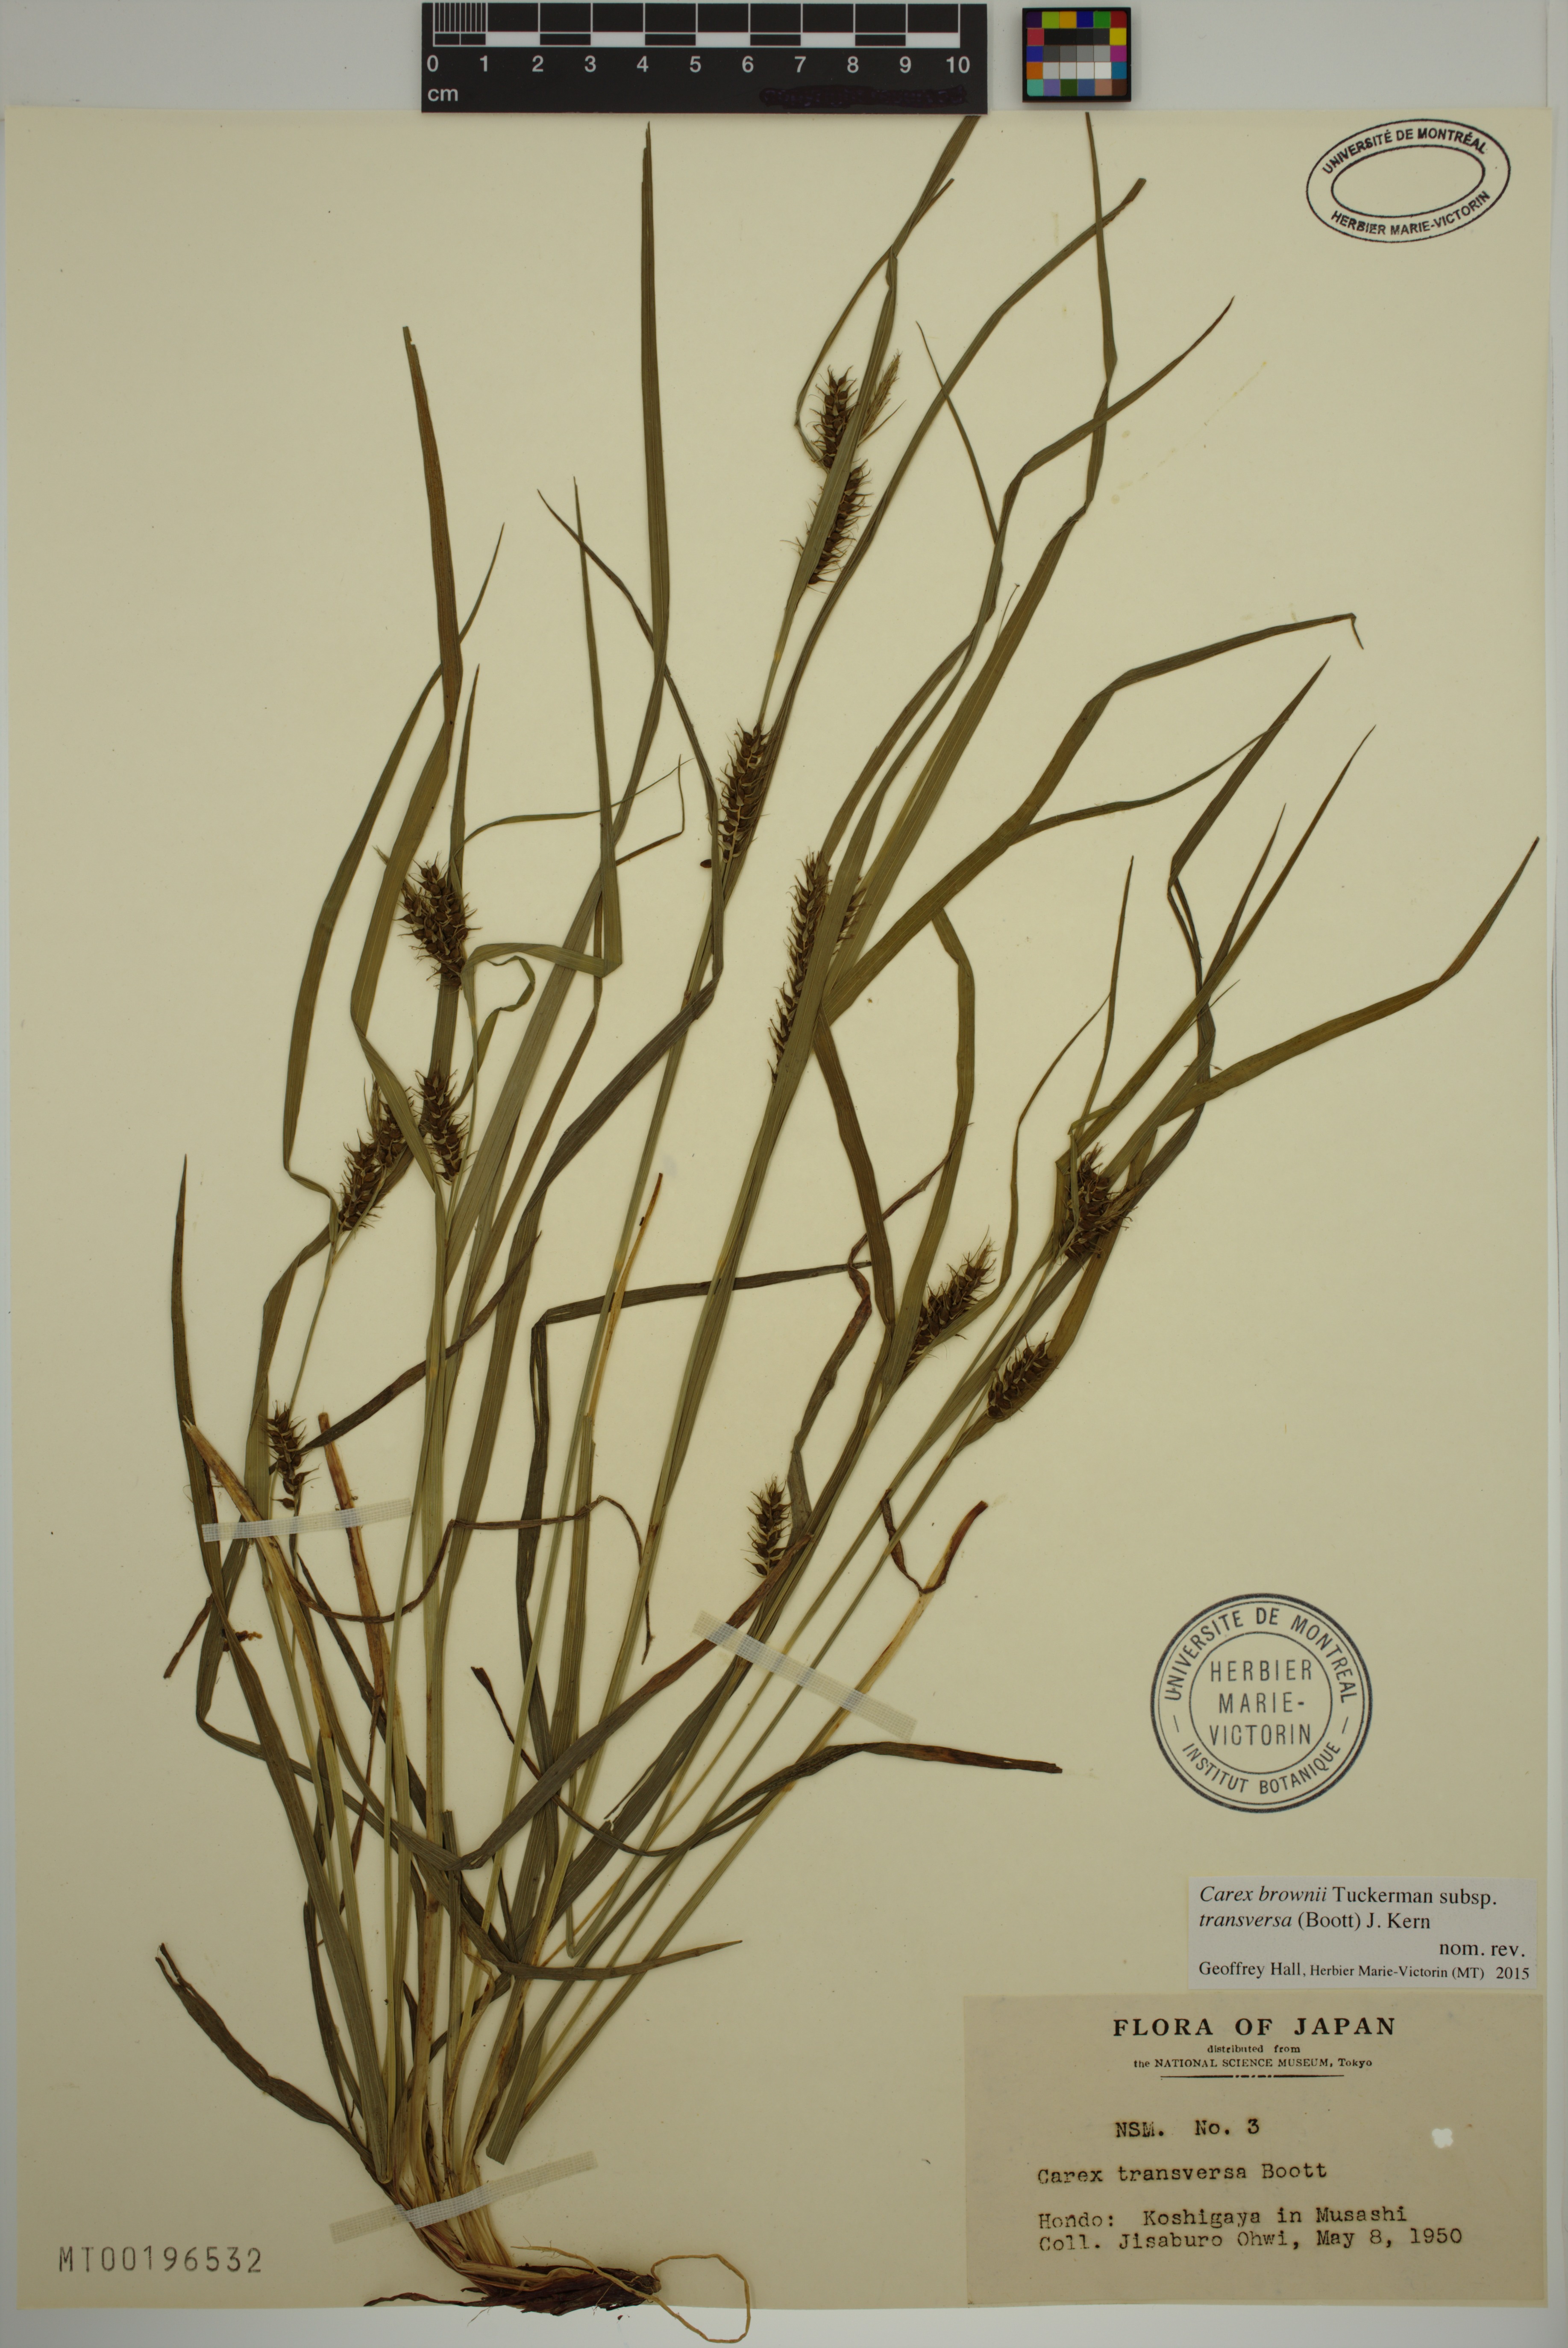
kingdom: Plantae
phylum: Tracheophyta
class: Liliopsida
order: Poales
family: Cyperaceae
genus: Carex
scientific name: Carex brownii
